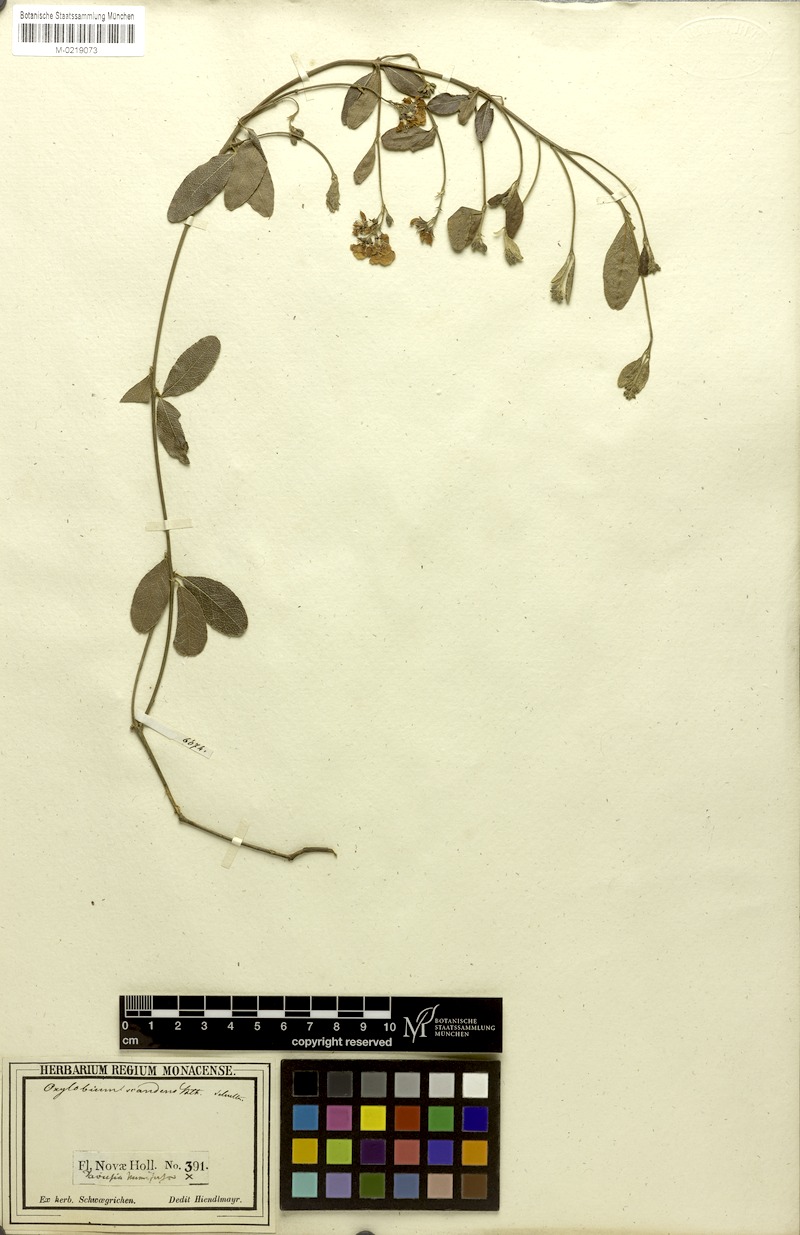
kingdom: Plantae
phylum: Tracheophyta
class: Magnoliopsida
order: Fabales
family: Fabaceae
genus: Podolobium
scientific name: Podolobium scandens
